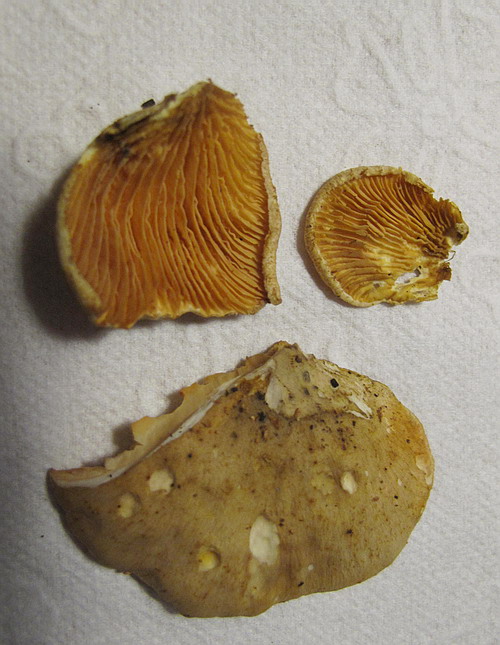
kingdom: Fungi
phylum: Basidiomycota
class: Agaricomycetes
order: Boletales
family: Tapinellaceae
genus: Tapinella
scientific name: Tapinella panuoides
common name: tømmer-viftesvamp
